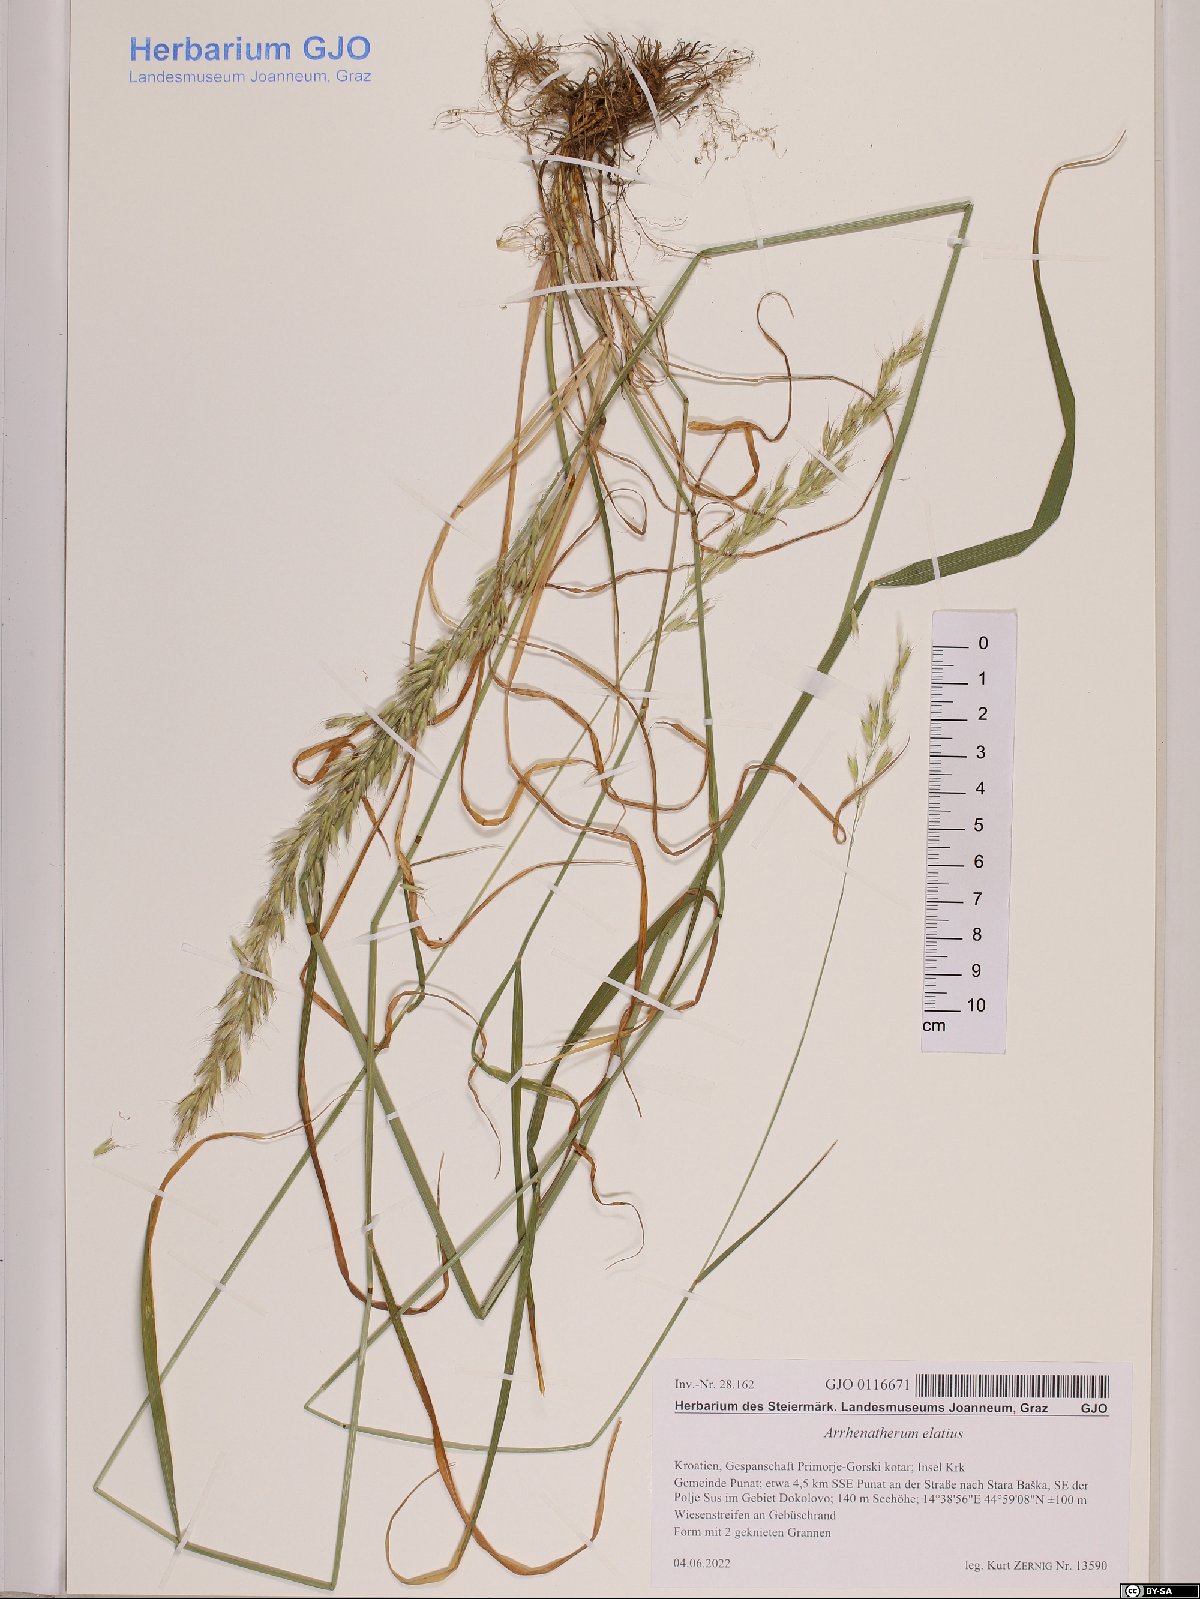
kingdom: Plantae
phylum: Tracheophyta
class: Liliopsida
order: Poales
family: Poaceae
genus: Arrhenatherum
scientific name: Arrhenatherum elatius
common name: Tall oatgrass
